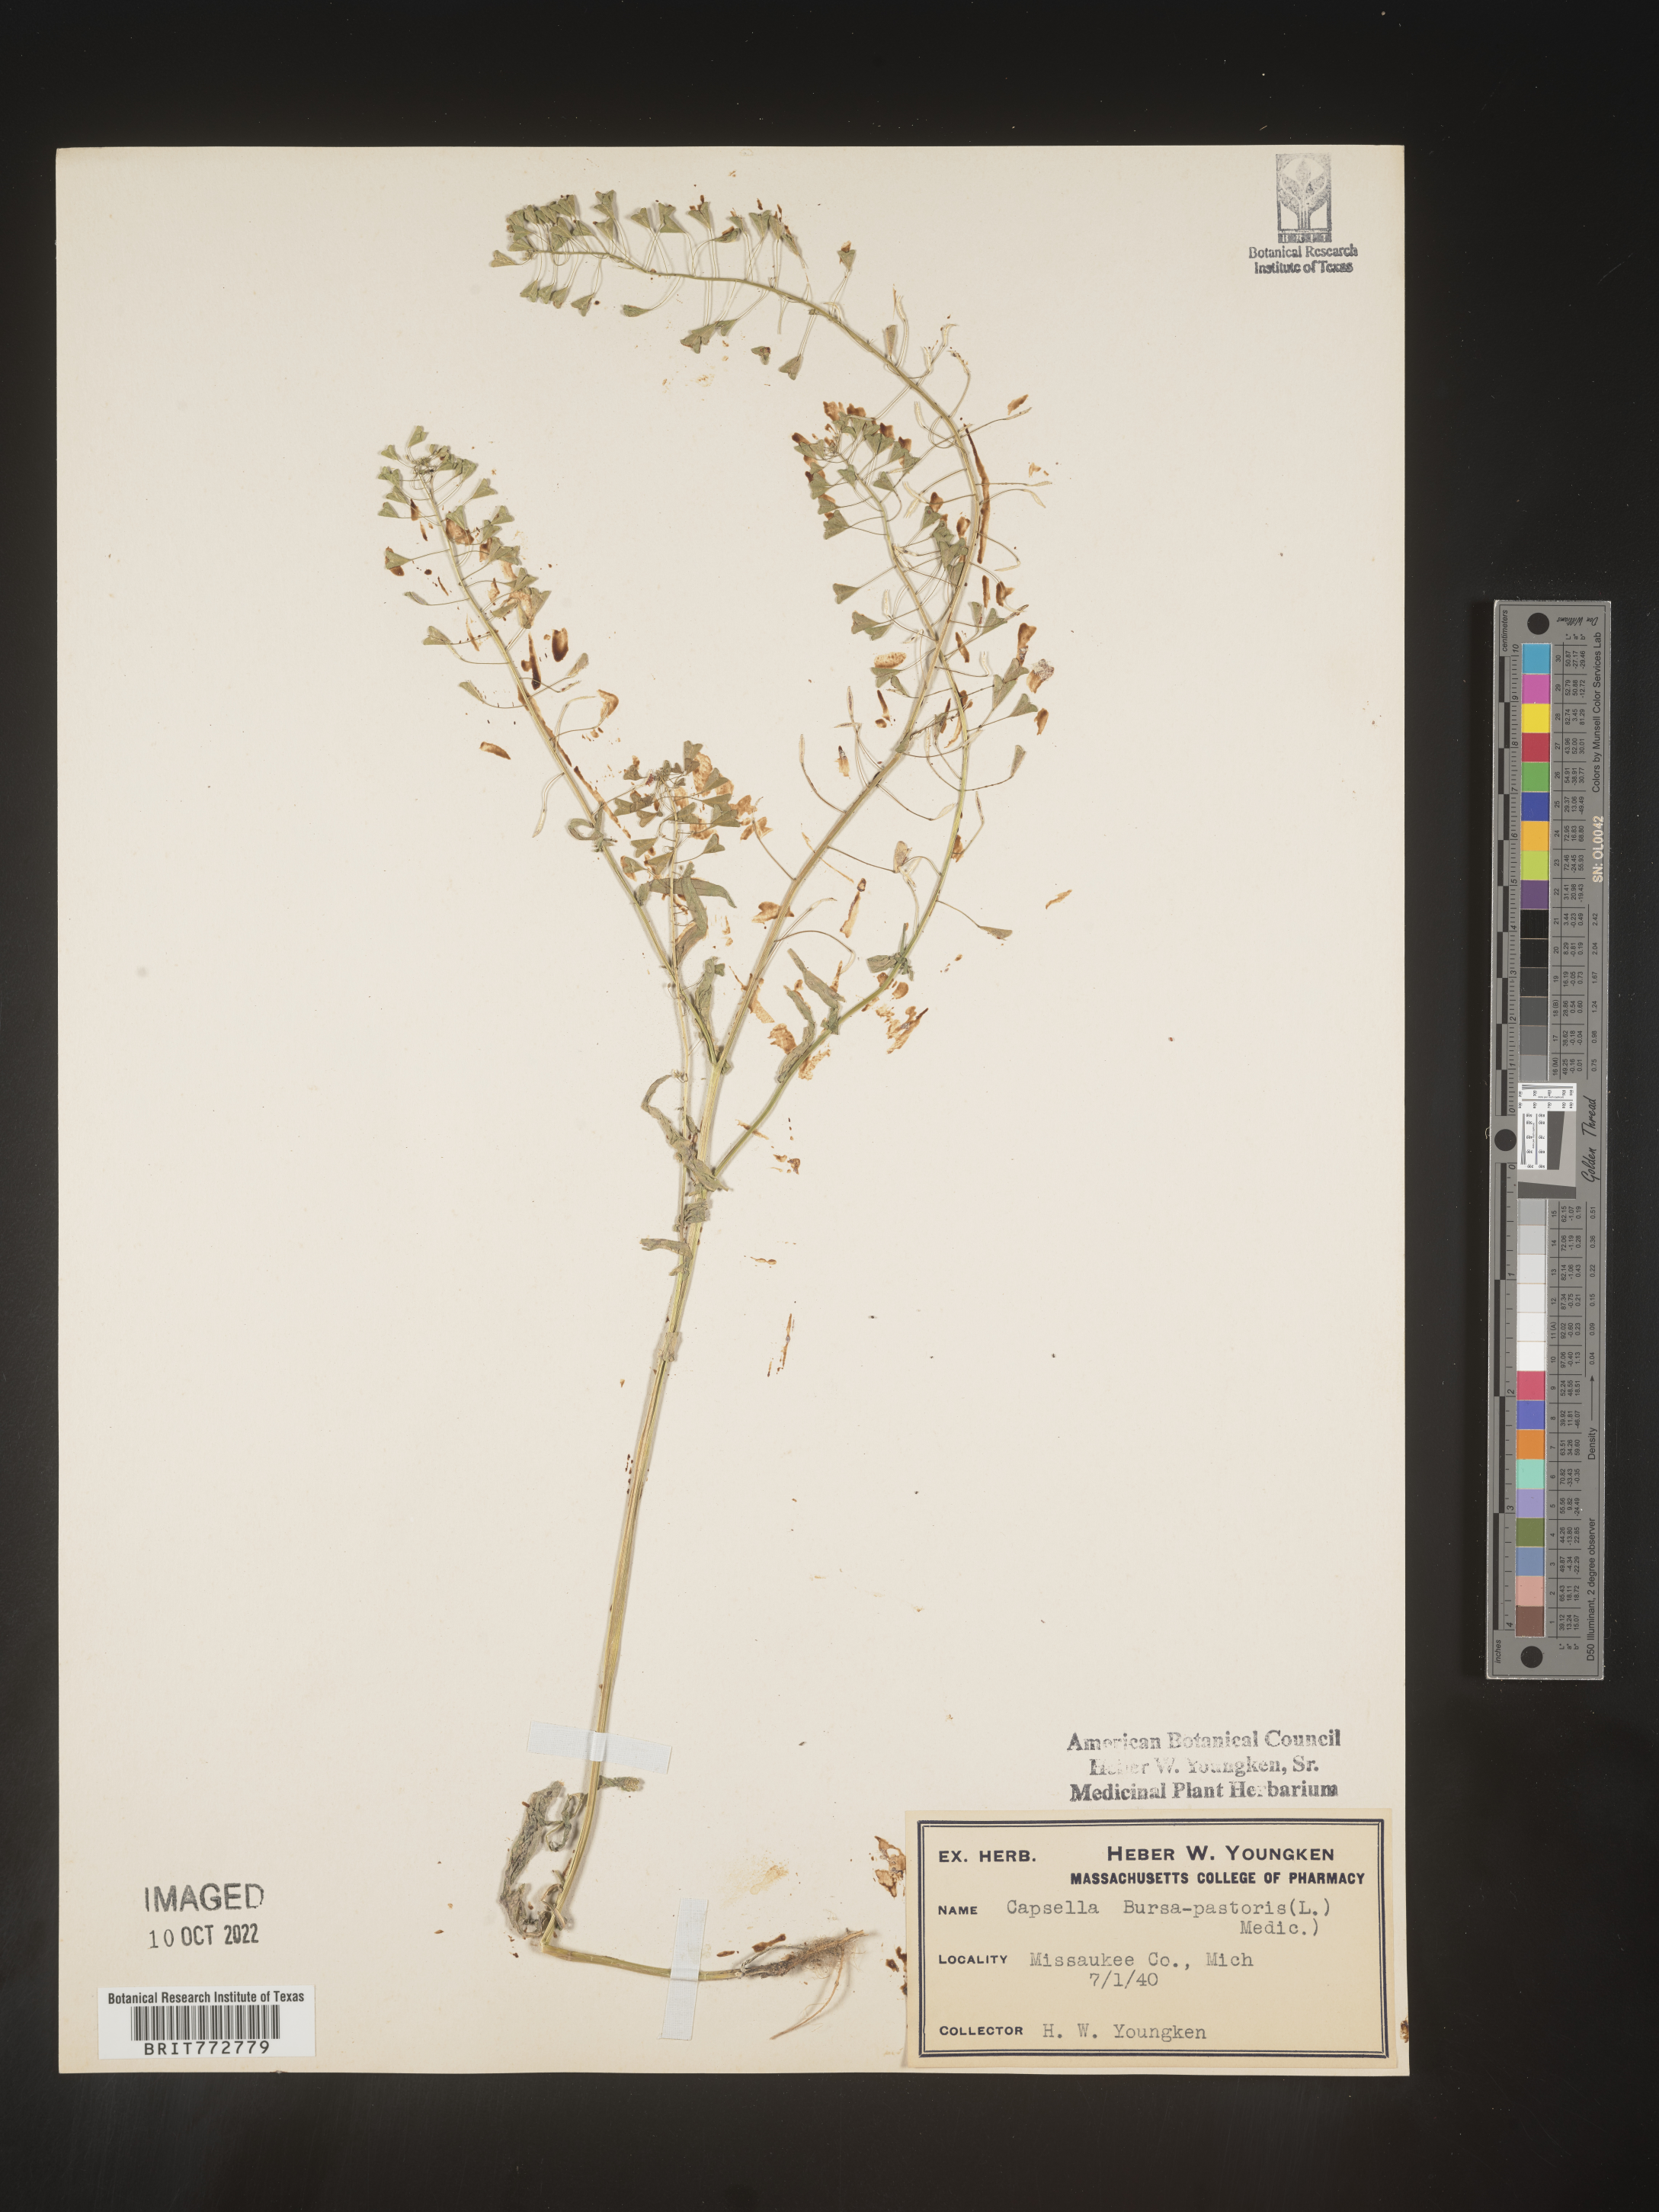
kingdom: Plantae
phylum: Tracheophyta
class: Magnoliopsida
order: Brassicales
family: Brassicaceae
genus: Capsella
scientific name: Capsella bursa-pastoris
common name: Shepherd's purse
